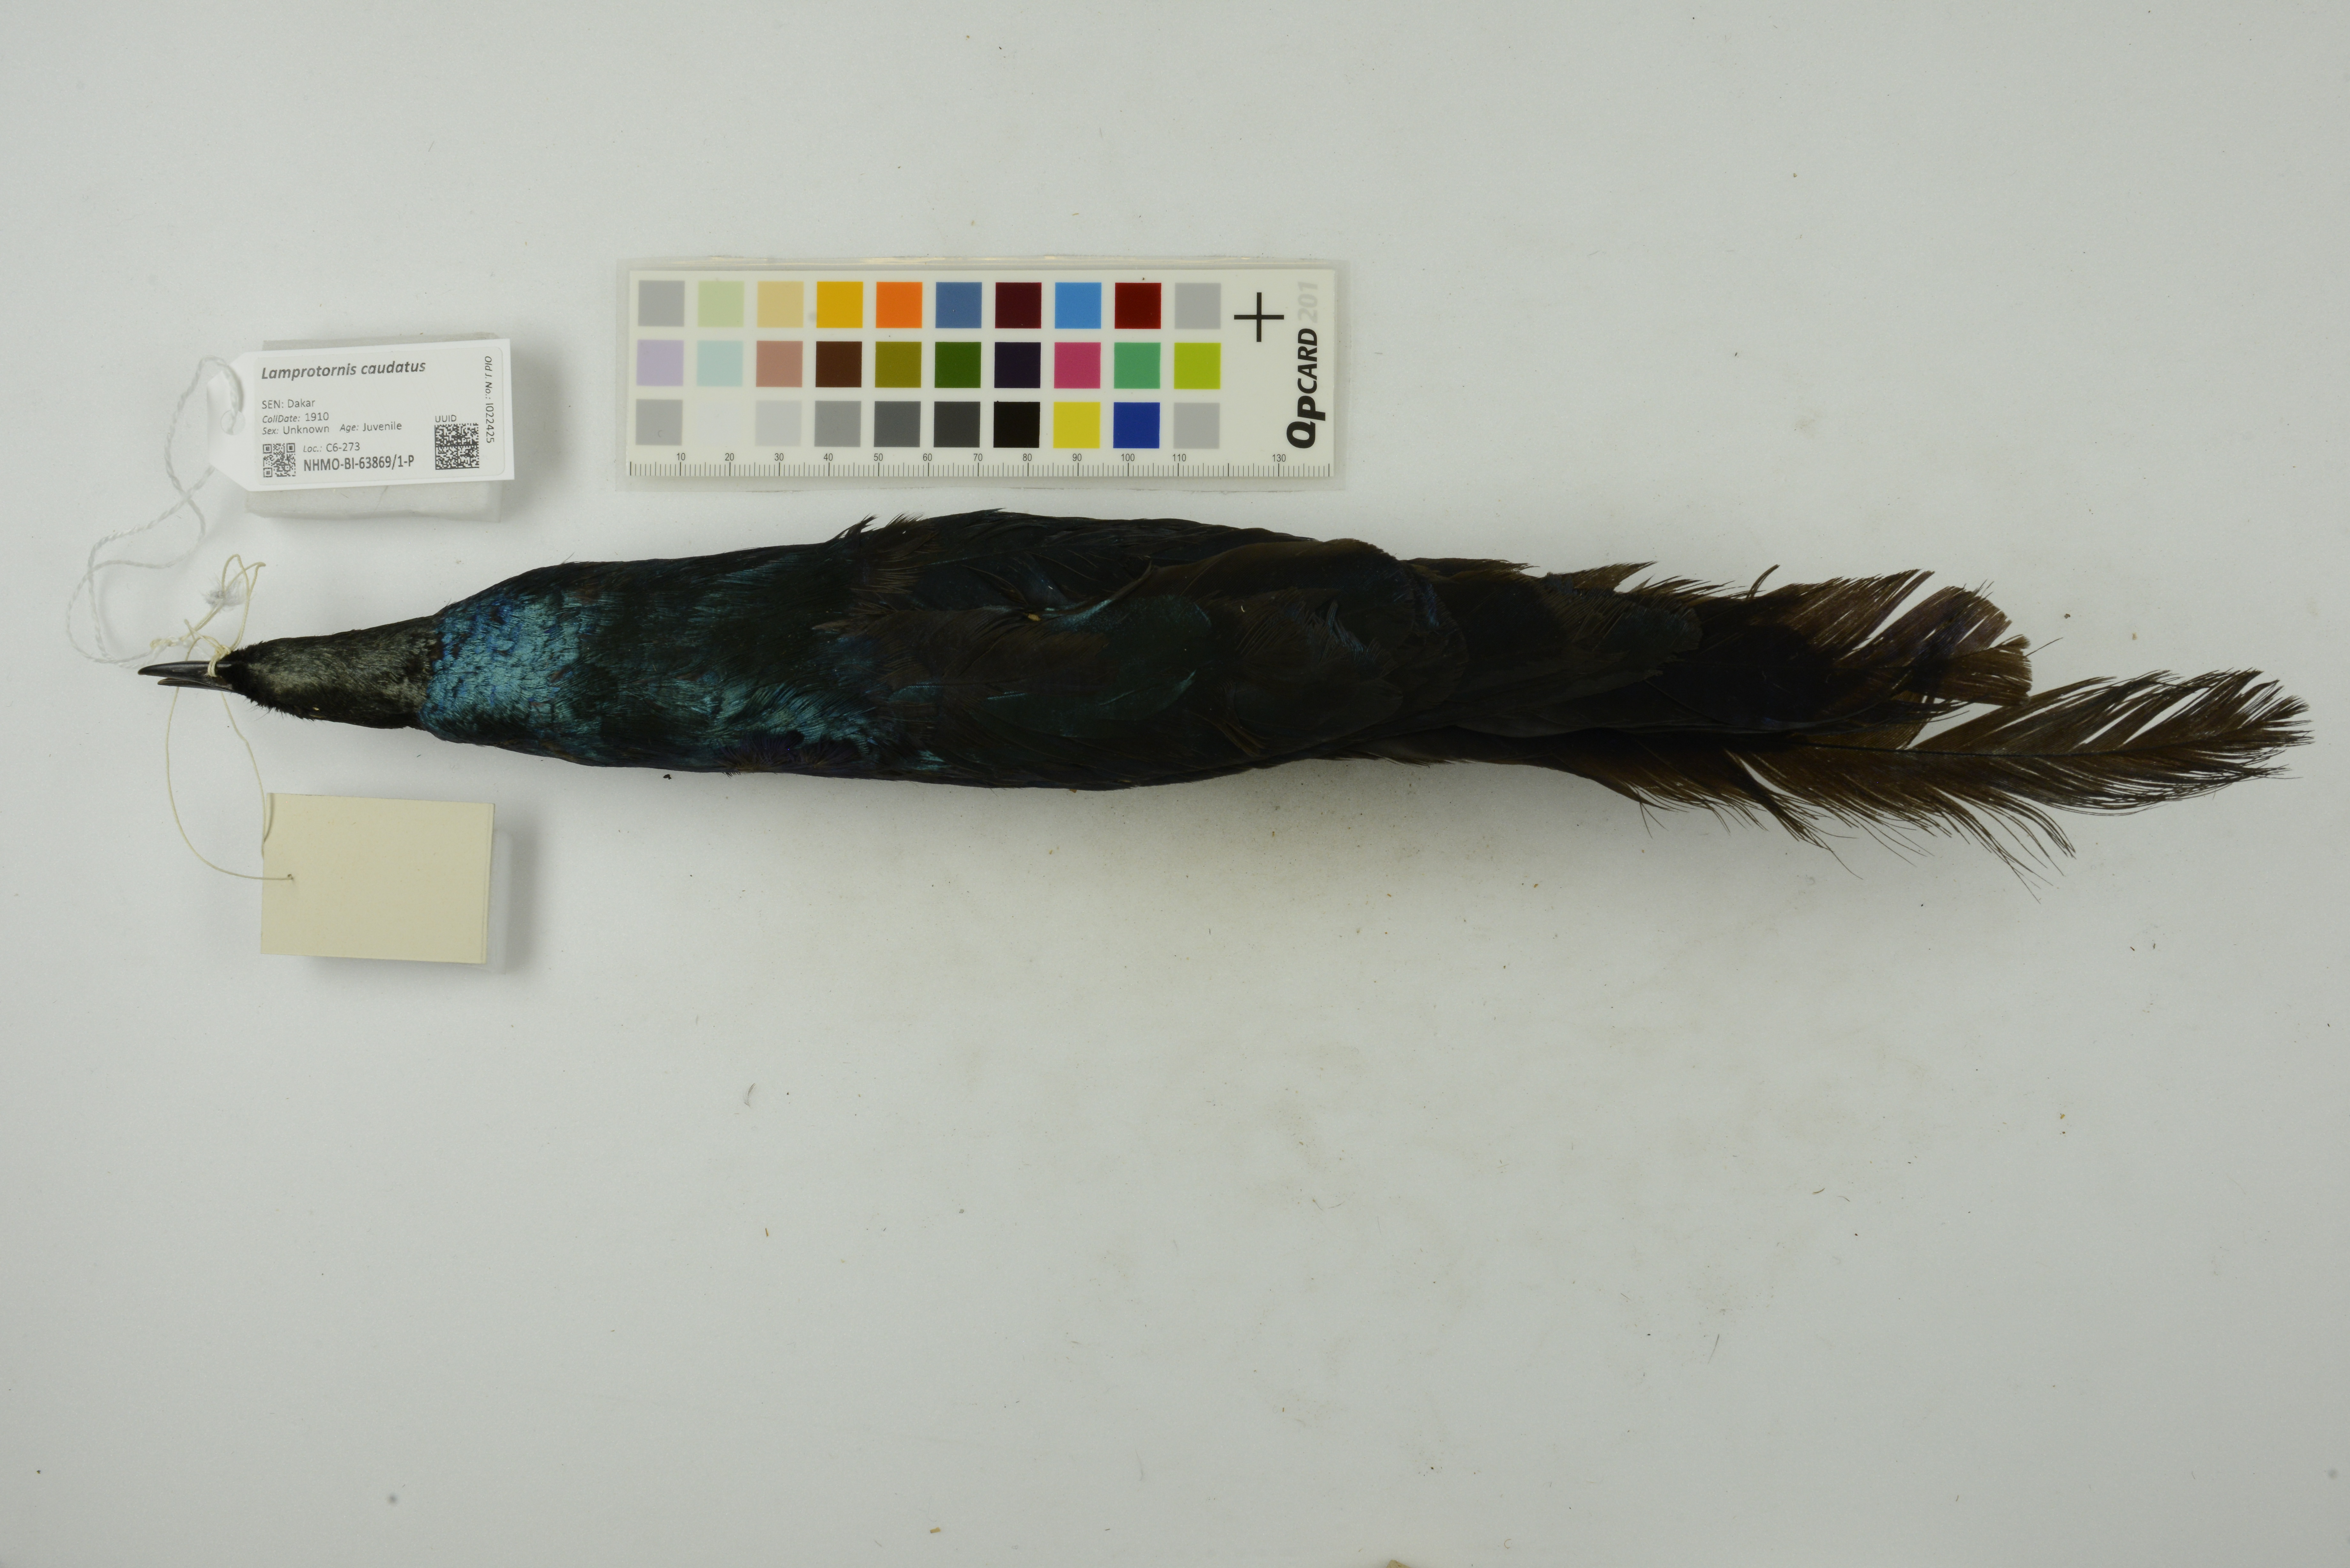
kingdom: Animalia
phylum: Chordata
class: Aves
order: Passeriformes
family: Sturnidae
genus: Lamprotornis
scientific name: Lamprotornis caudatus
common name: Long-tailed glossy starling
